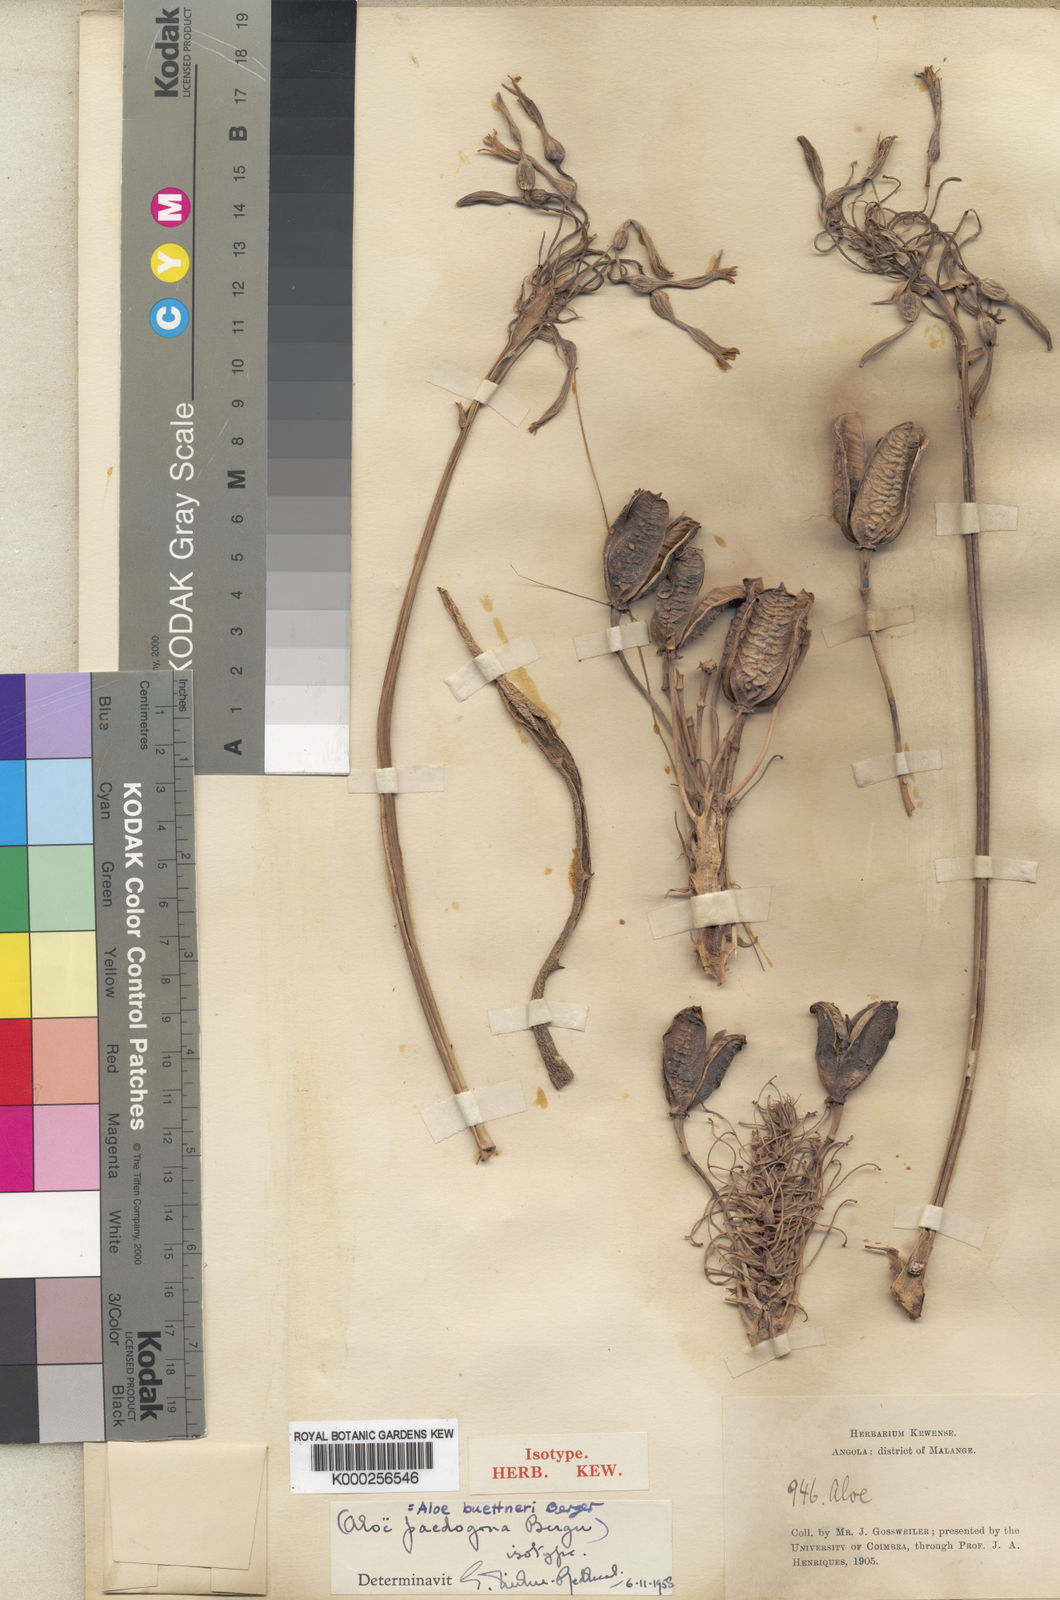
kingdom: Plantae
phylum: Tracheophyta
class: Liliopsida
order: Asparagales
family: Asphodelaceae
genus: Aloe
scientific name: Aloe paedogona
